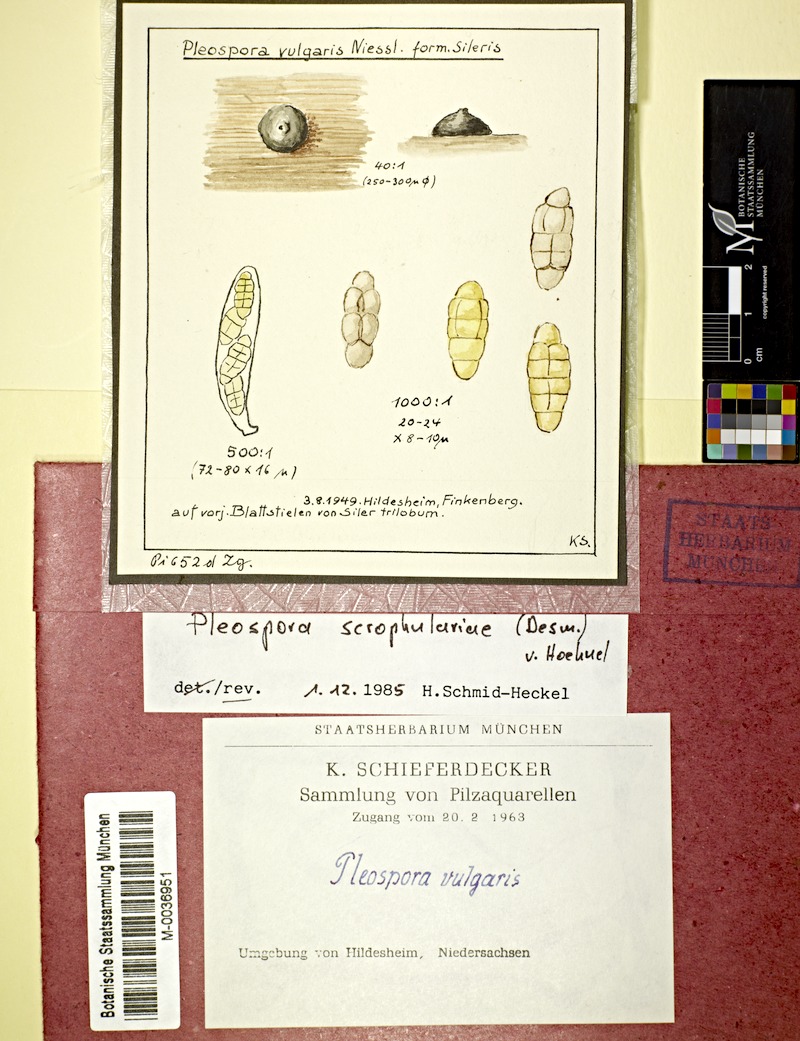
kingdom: Fungi
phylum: Ascomycota
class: Dothideomycetes
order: Pleosporales
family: Pleosporaceae
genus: Alternaria
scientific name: Alternaria scrophulariae
